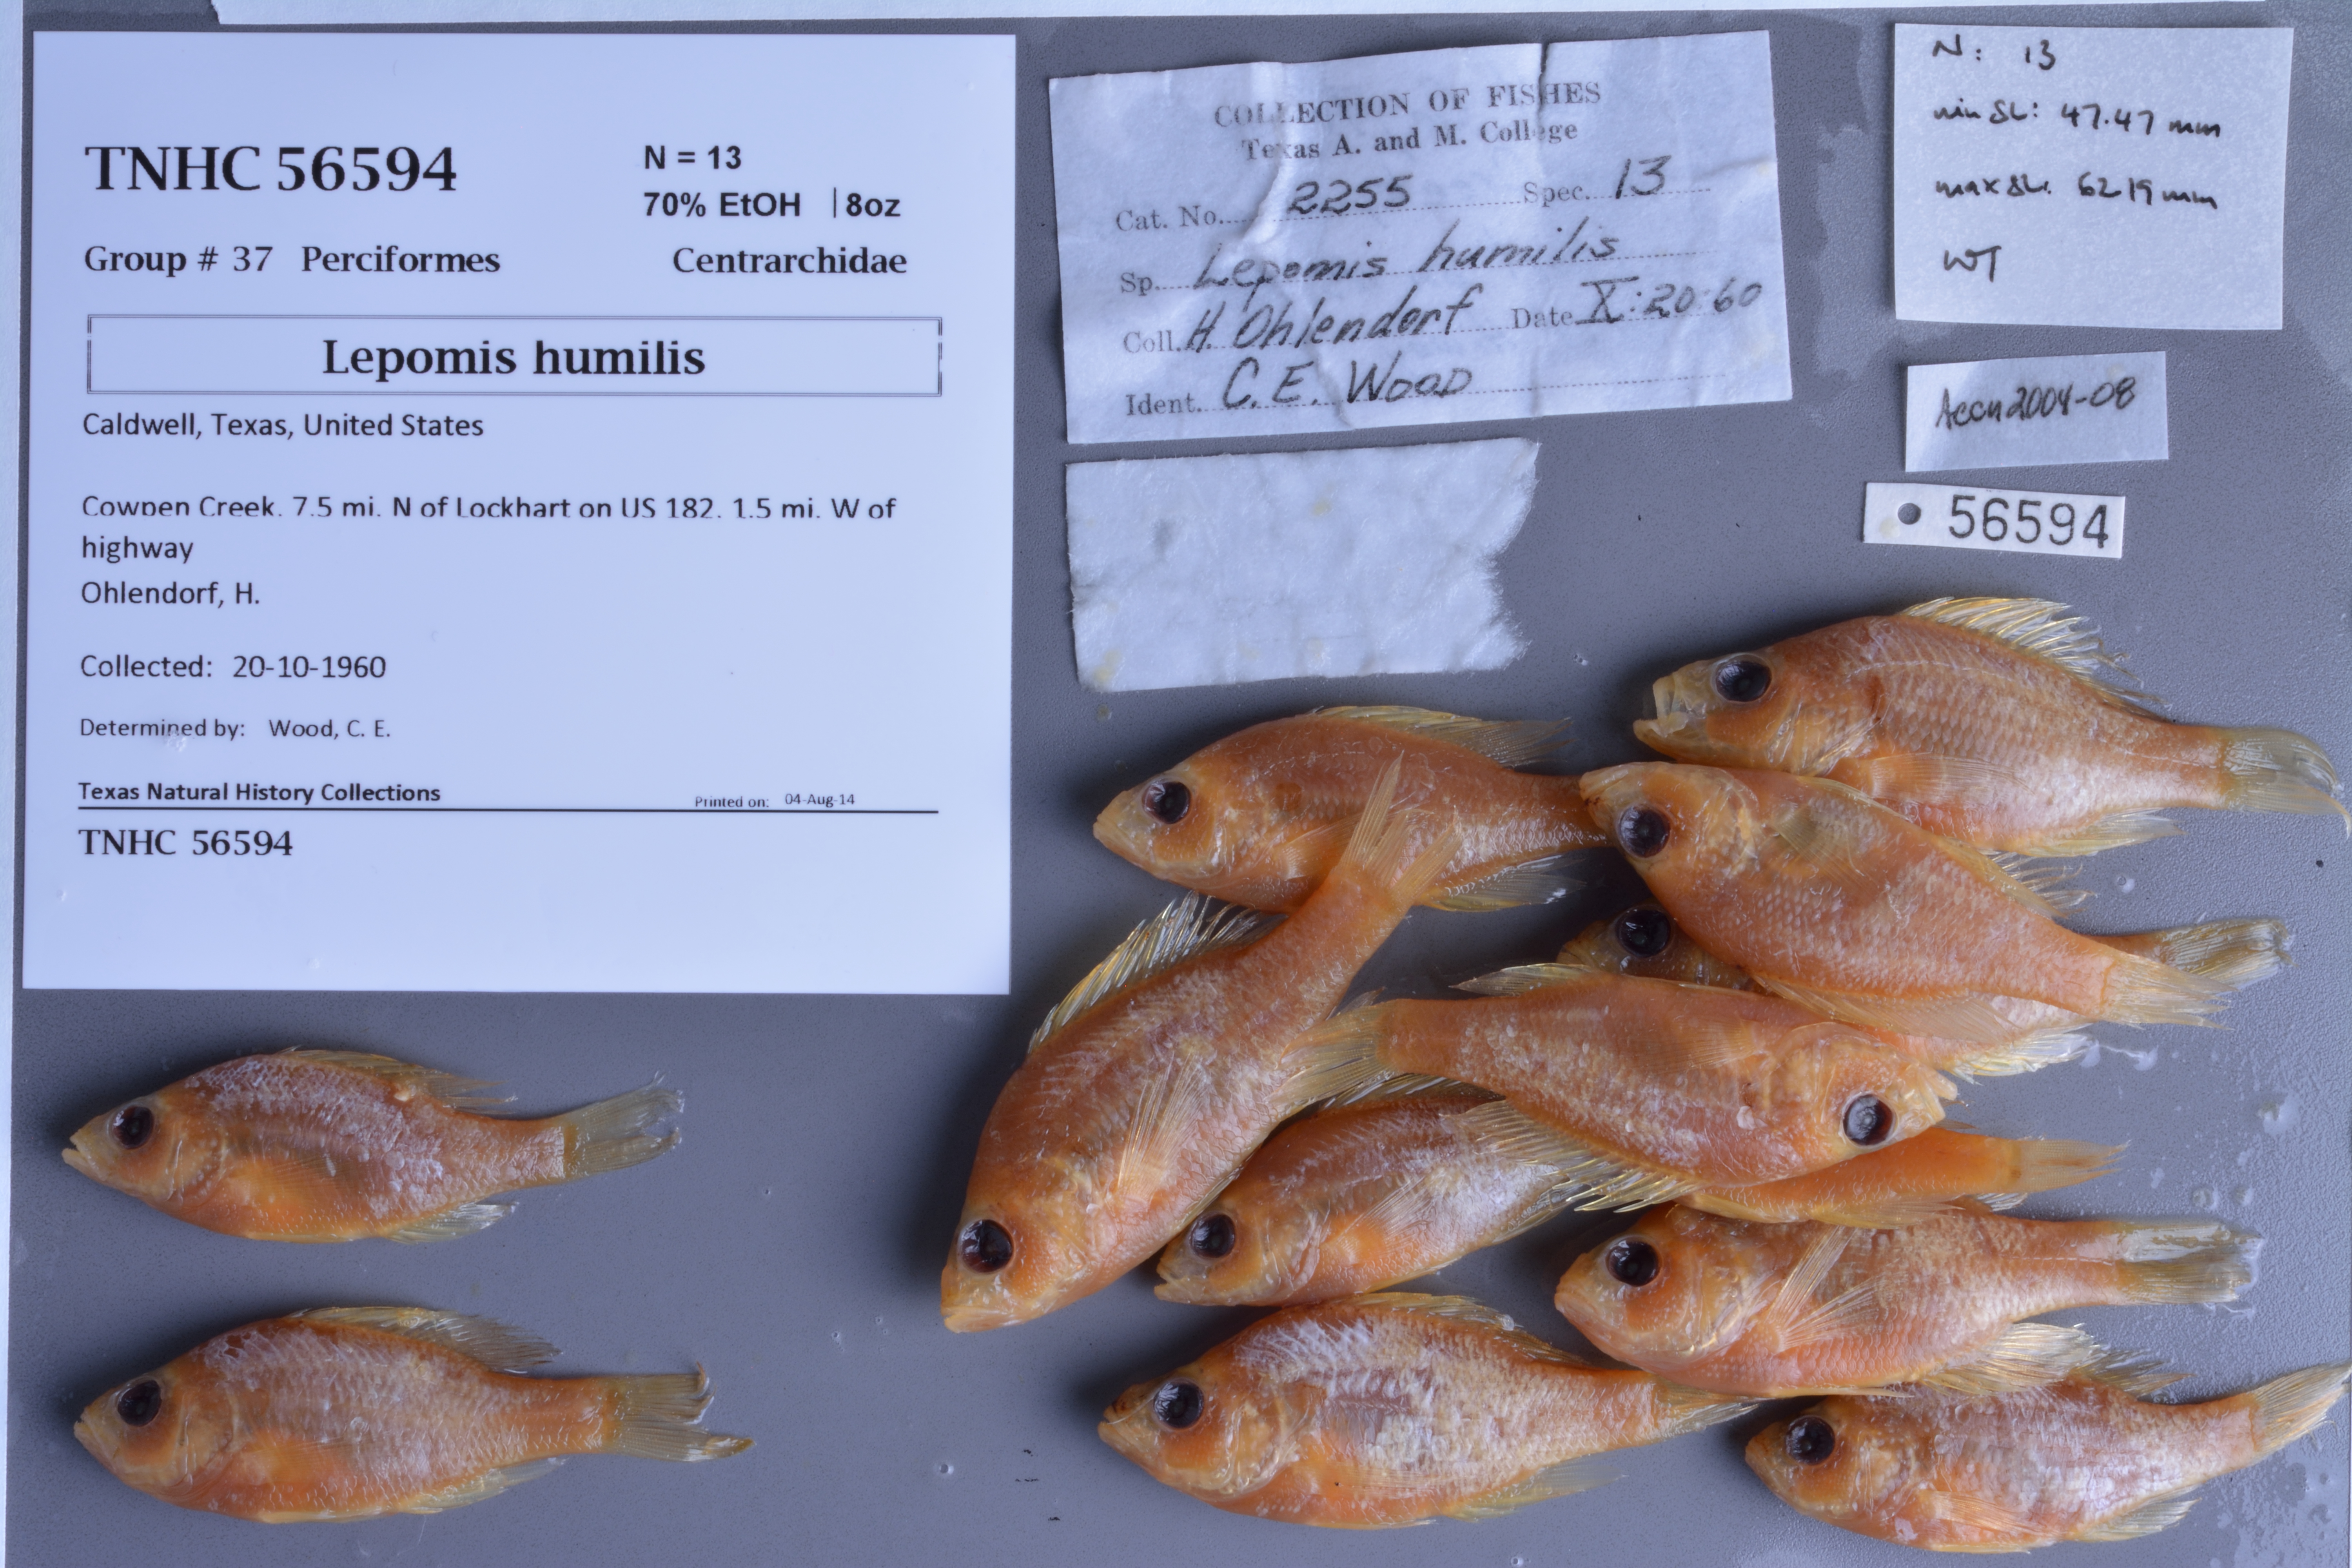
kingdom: Animalia
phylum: Chordata
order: Perciformes
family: Centrarchidae
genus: Lepomis
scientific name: Lepomis humilis
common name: Orangespotted sunfish
